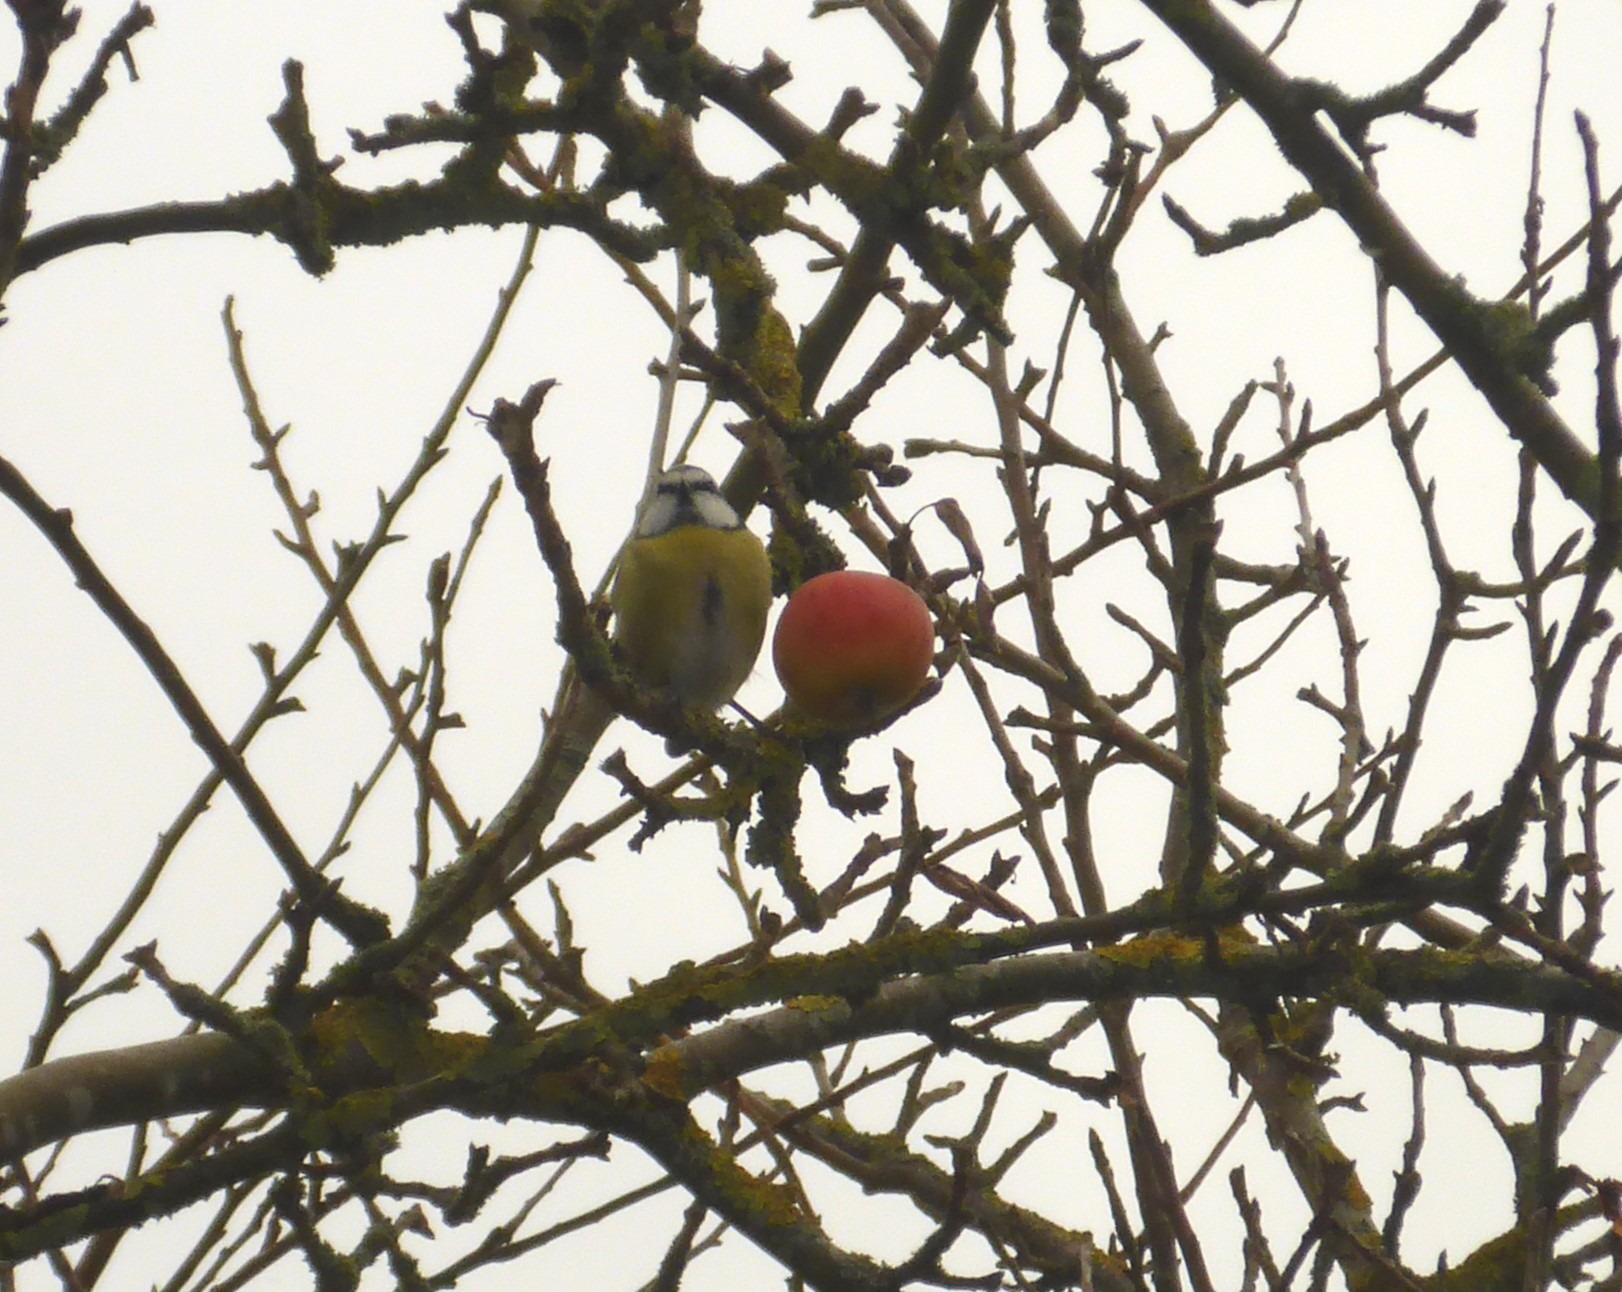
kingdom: Animalia
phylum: Chordata
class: Aves
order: Passeriformes
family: Paridae
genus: Cyanistes
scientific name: Cyanistes caeruleus
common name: Blåmejse
